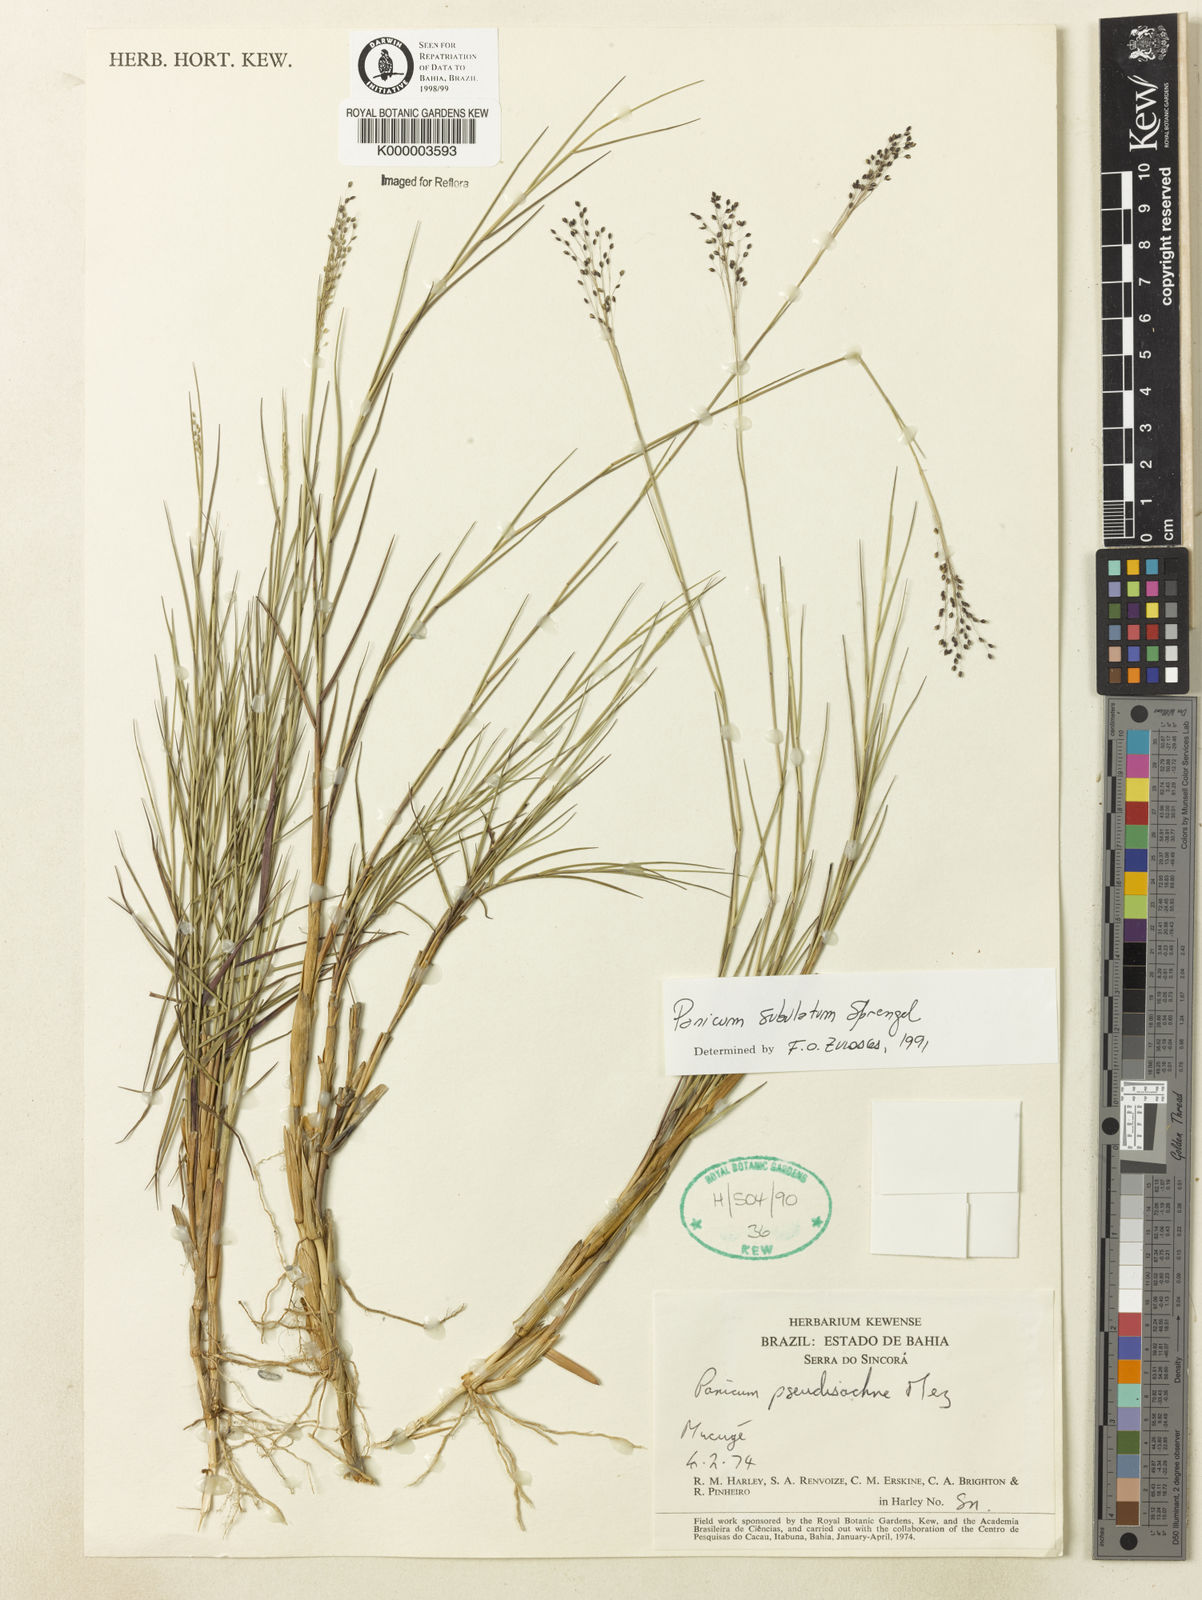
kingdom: Plantae
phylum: Tracheophyta
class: Liliopsida
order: Poales
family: Poaceae
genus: Trichanthecium
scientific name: Trichanthecium distichophyllum
